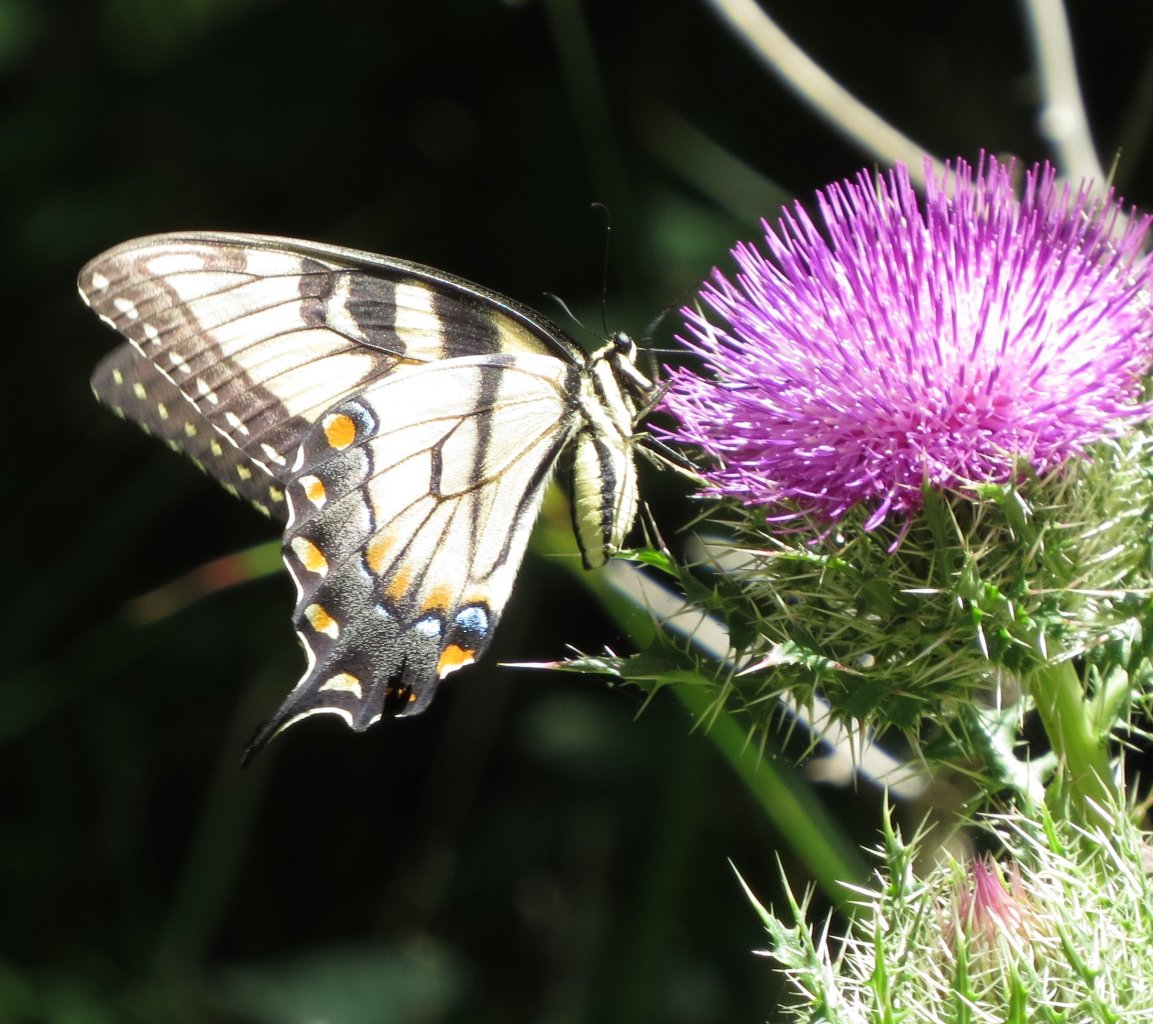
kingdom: Animalia
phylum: Arthropoda
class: Insecta
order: Lepidoptera
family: Papilionidae
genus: Pterourus
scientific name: Pterourus glaucus
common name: Eastern Tiger Swallowtail
